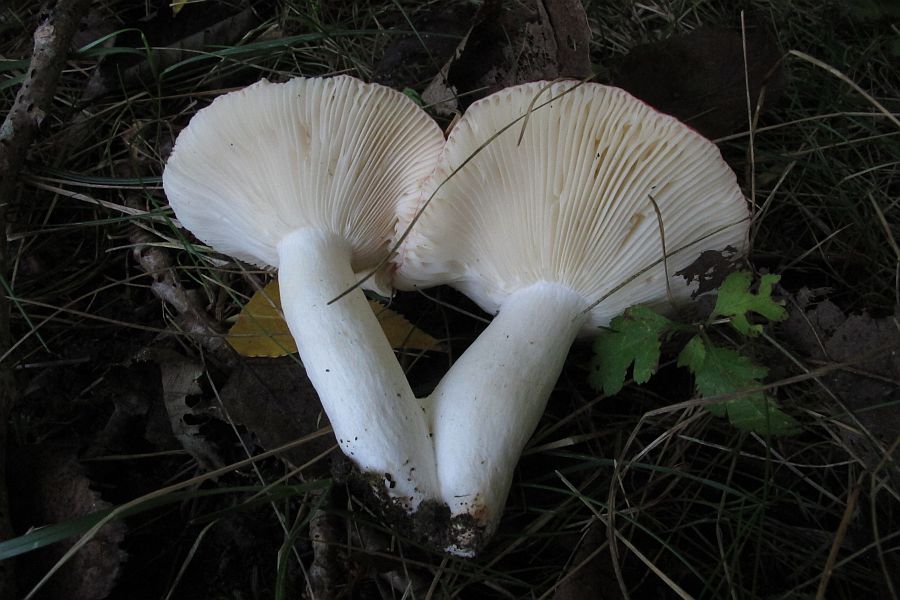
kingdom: Fungi
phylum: Basidiomycota
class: Agaricomycetes
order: Russulales
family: Russulaceae
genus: Russula
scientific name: Russula rosea
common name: fastkødet skørhat
